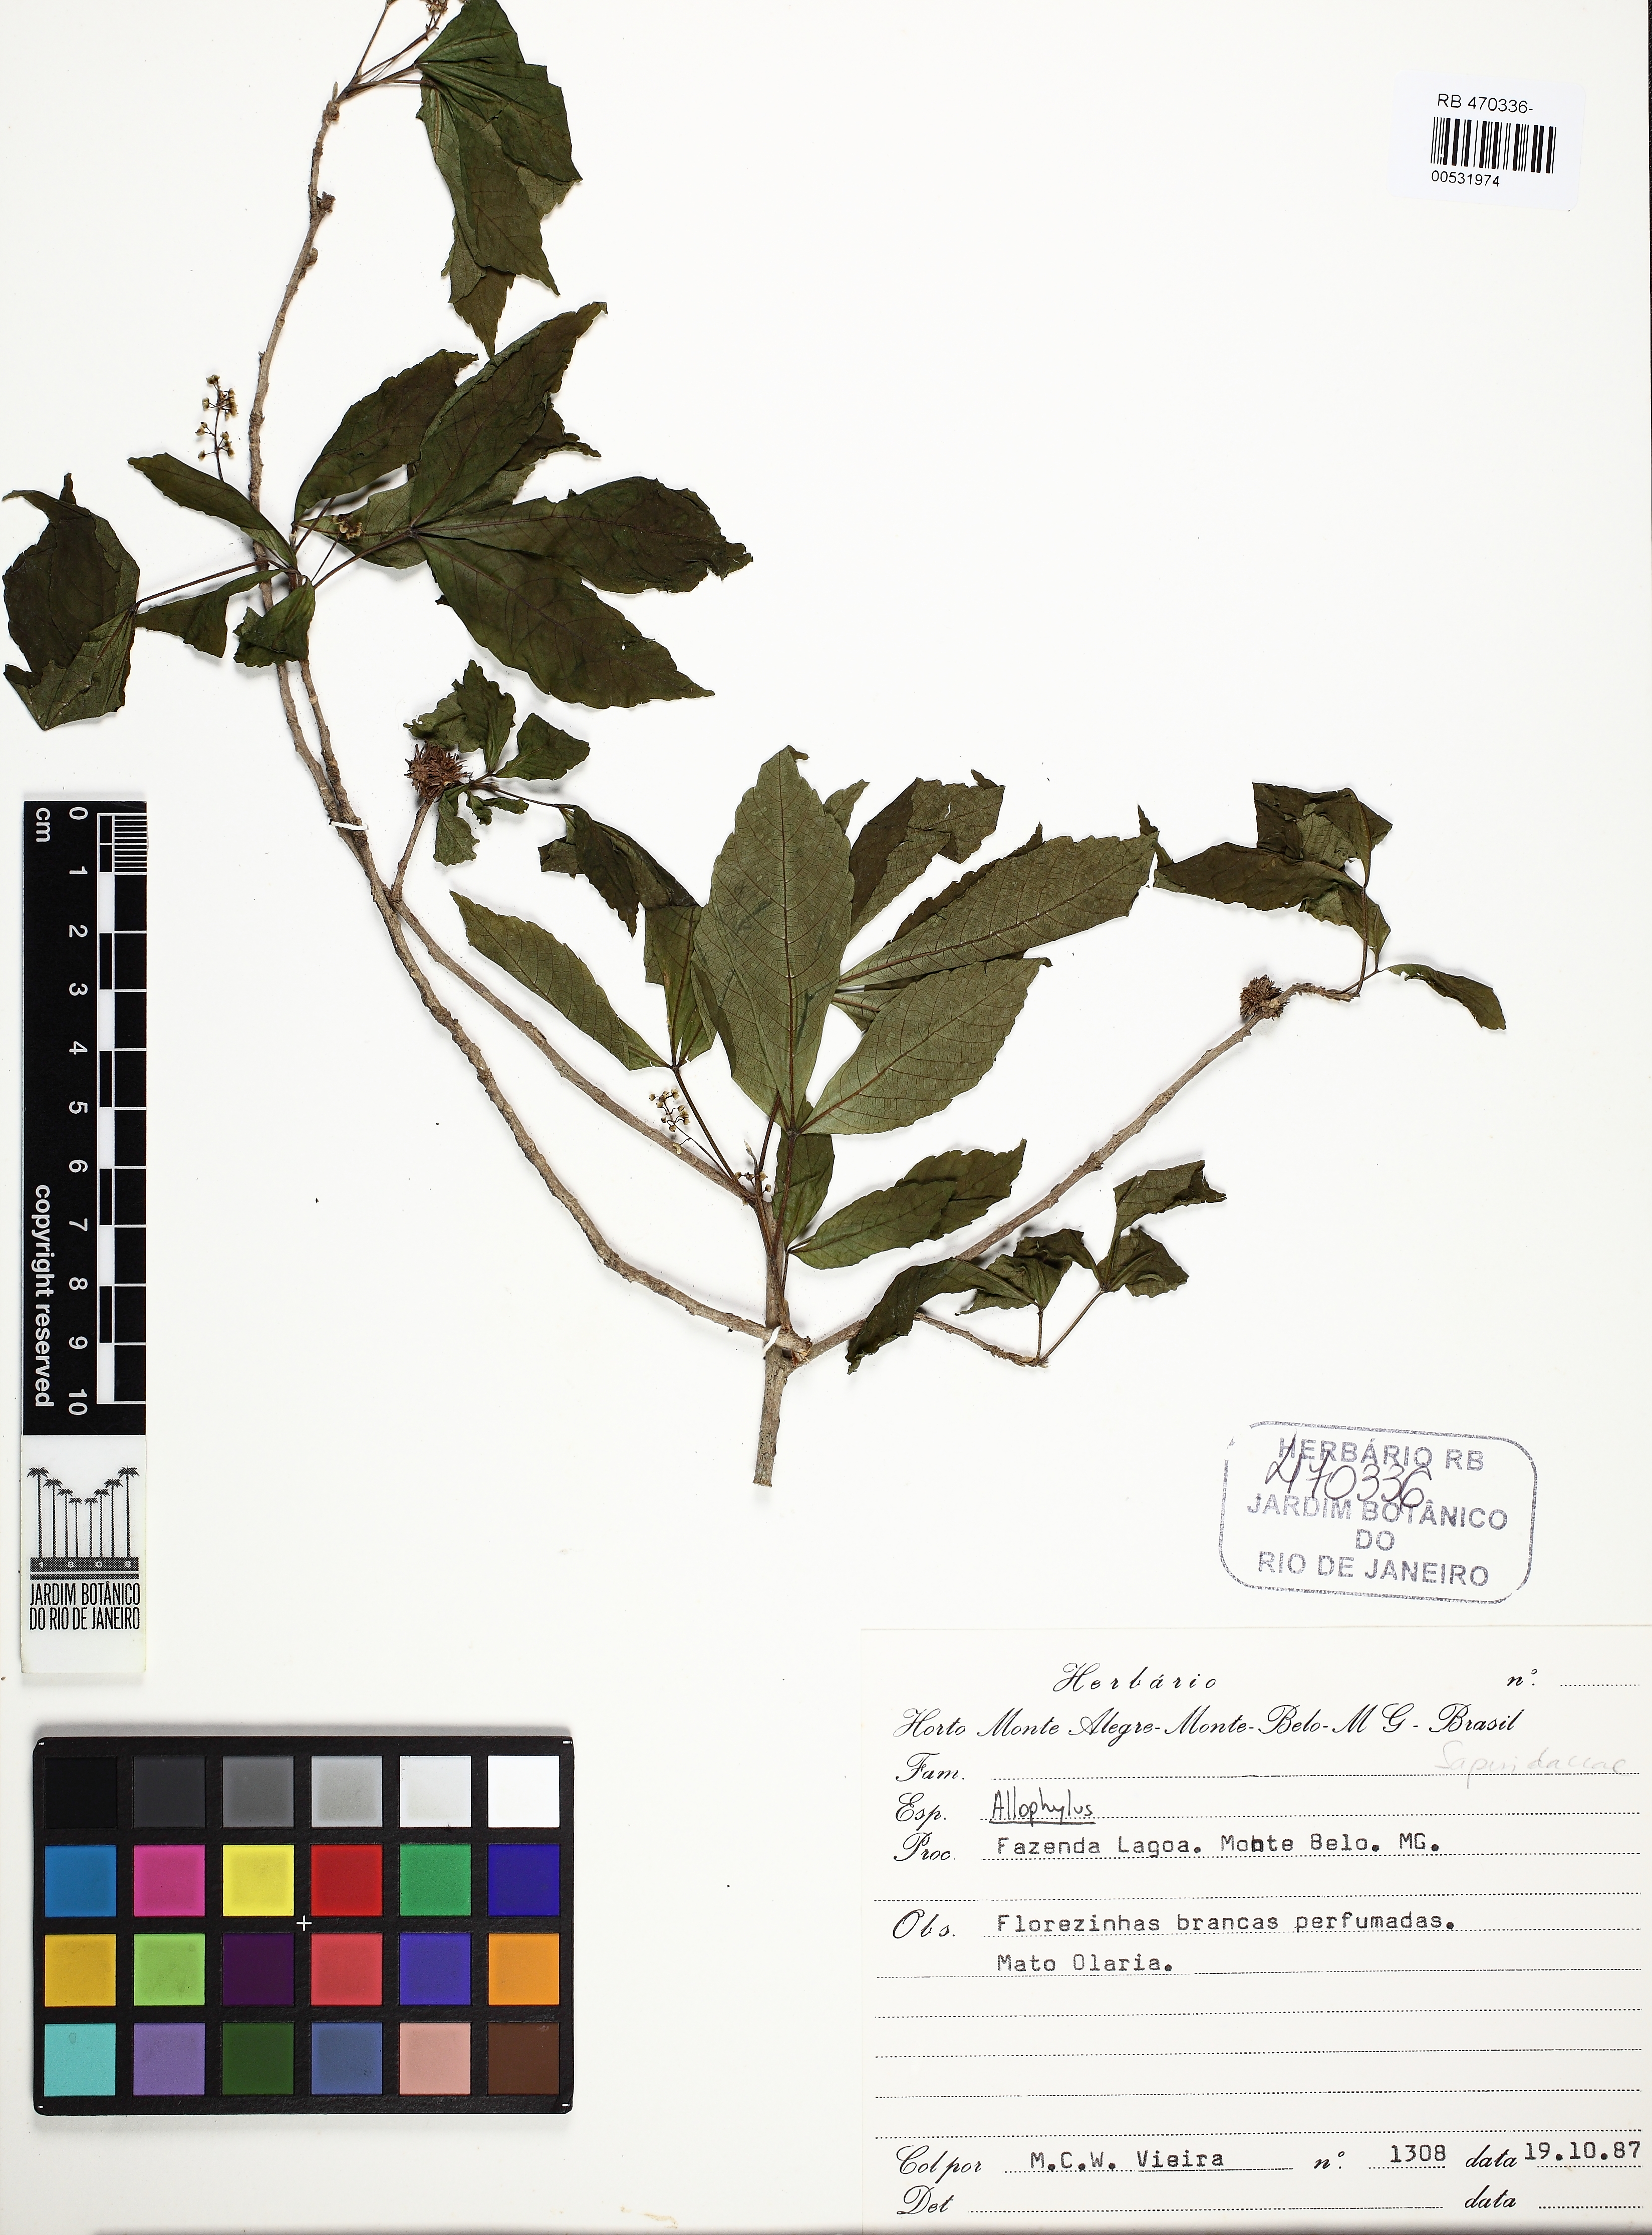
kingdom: Plantae
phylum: Tracheophyta
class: Magnoliopsida
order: Sapindales
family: Sapindaceae
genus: Allophylus
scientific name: Allophylus
